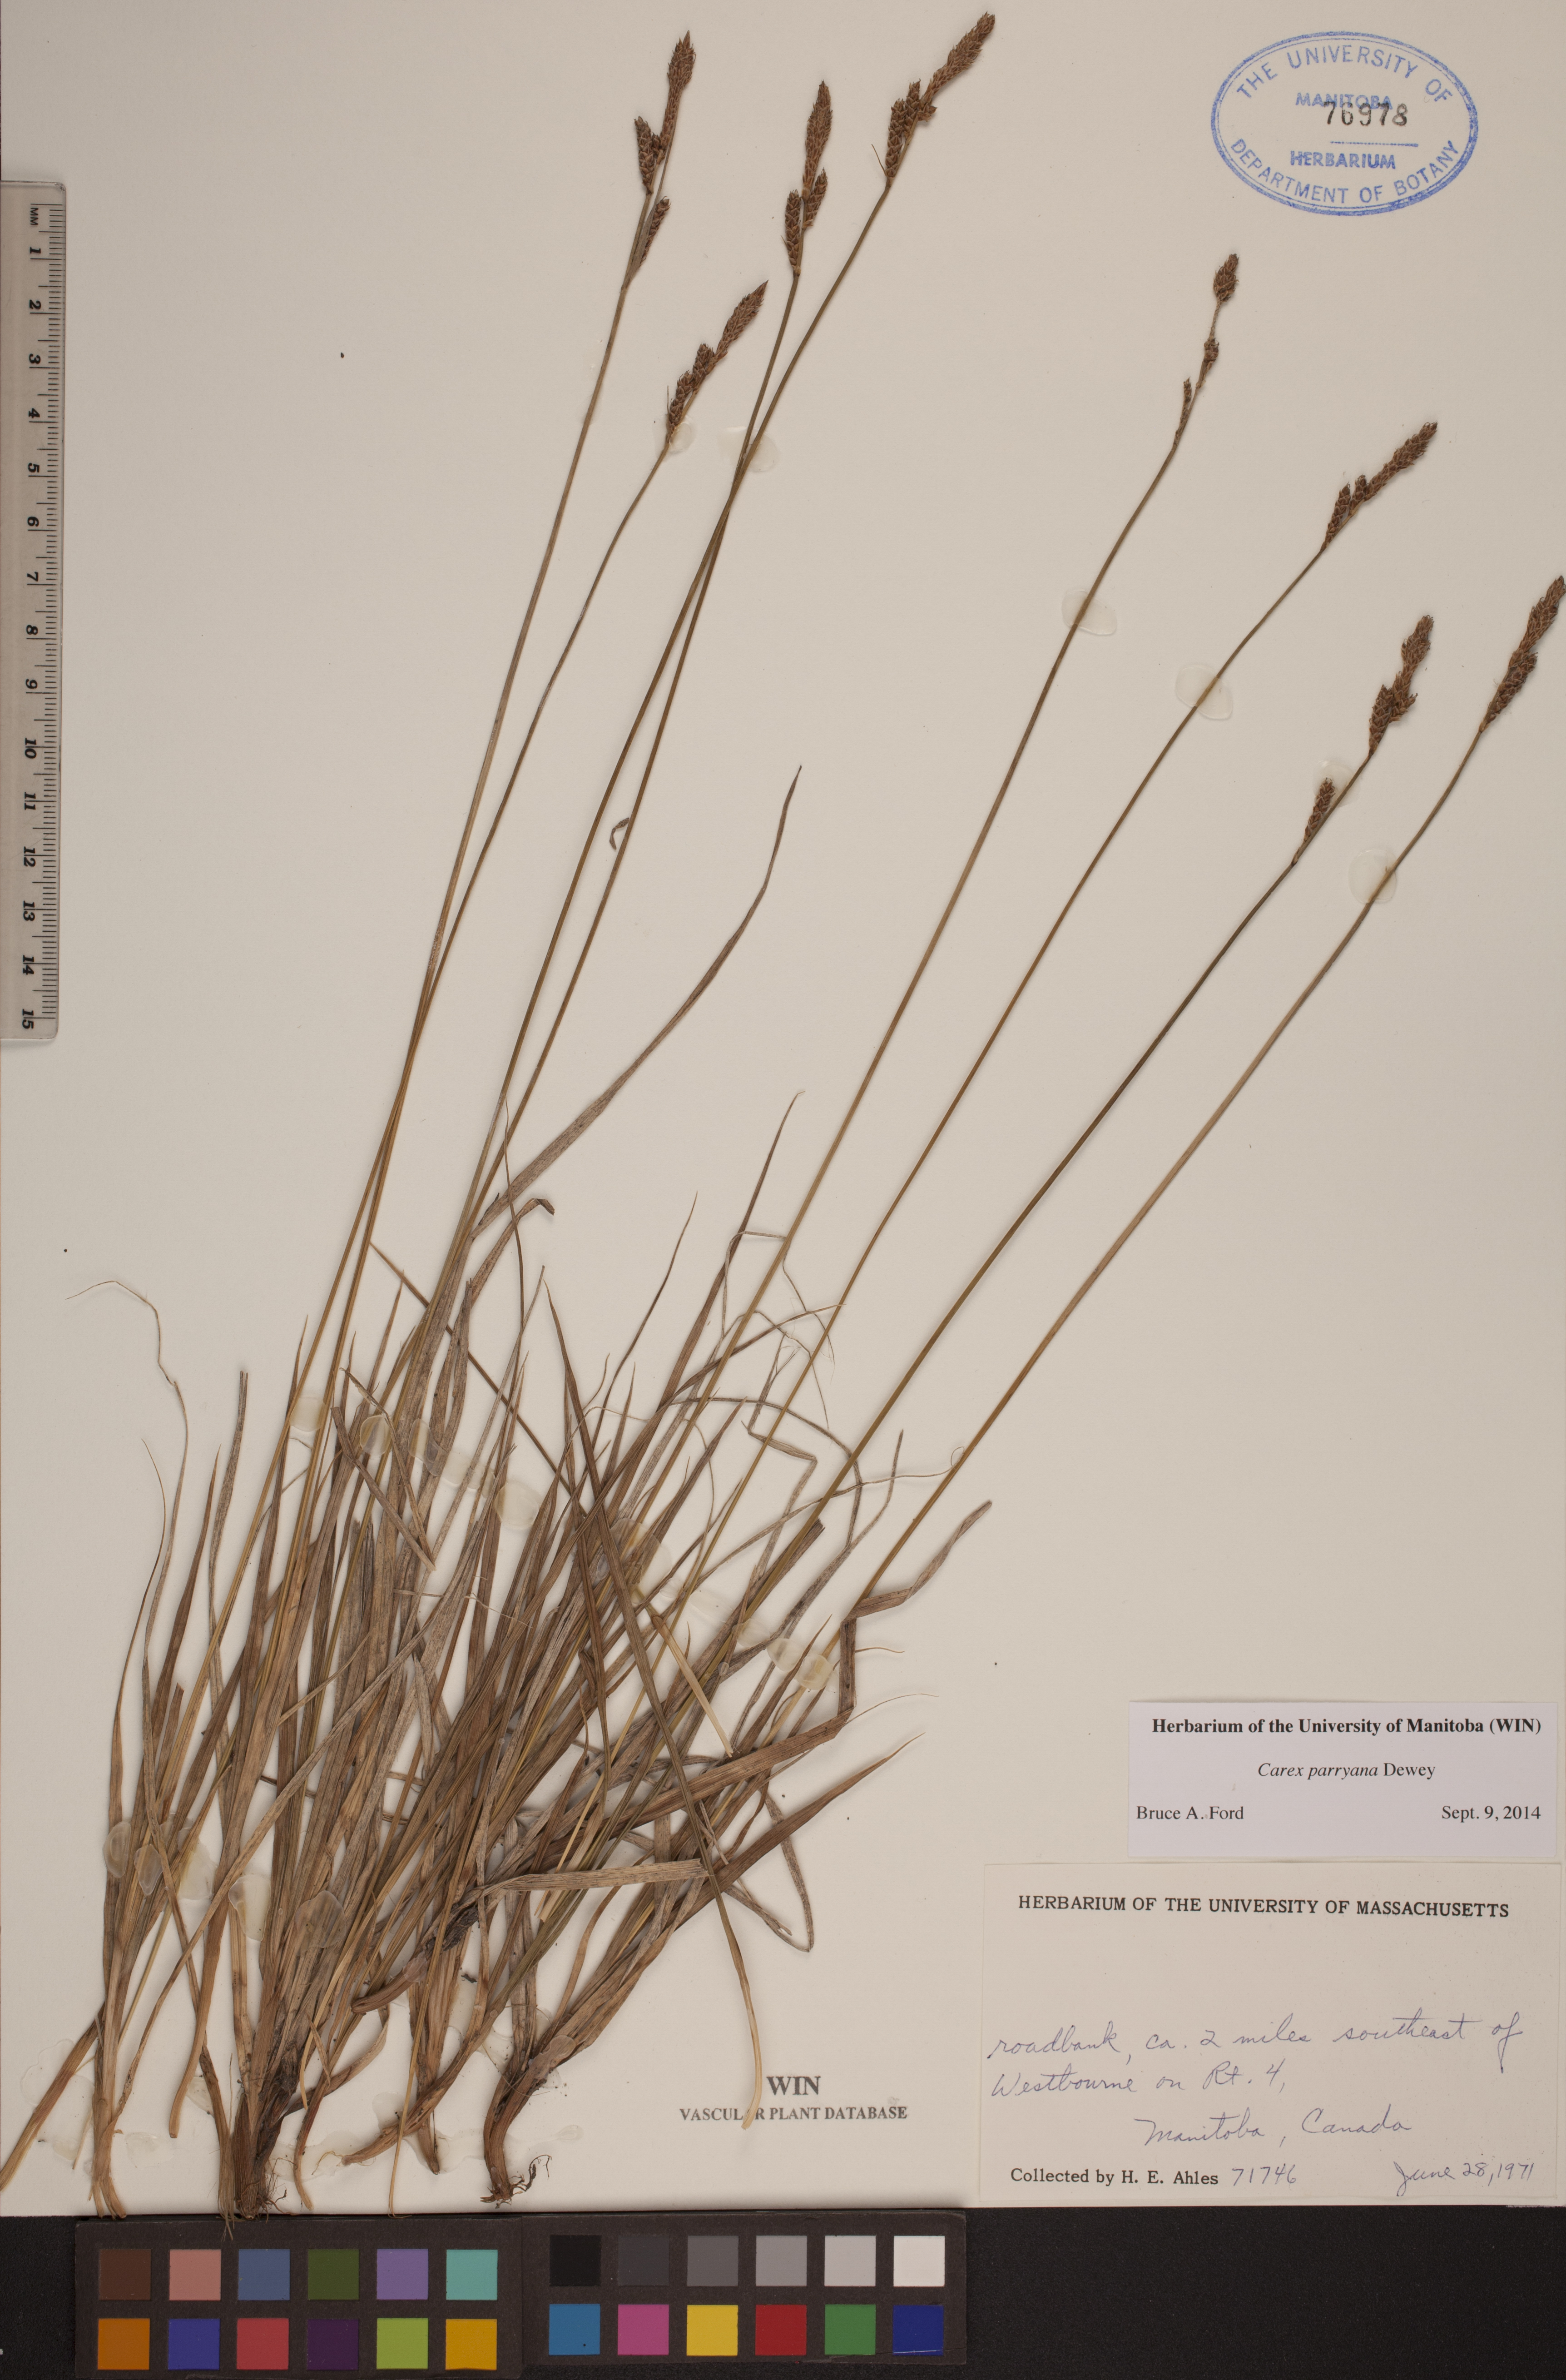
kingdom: Plantae
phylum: Tracheophyta
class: Liliopsida
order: Poales
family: Cyperaceae
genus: Carex
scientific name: Carex parryana
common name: Parry's sedge
